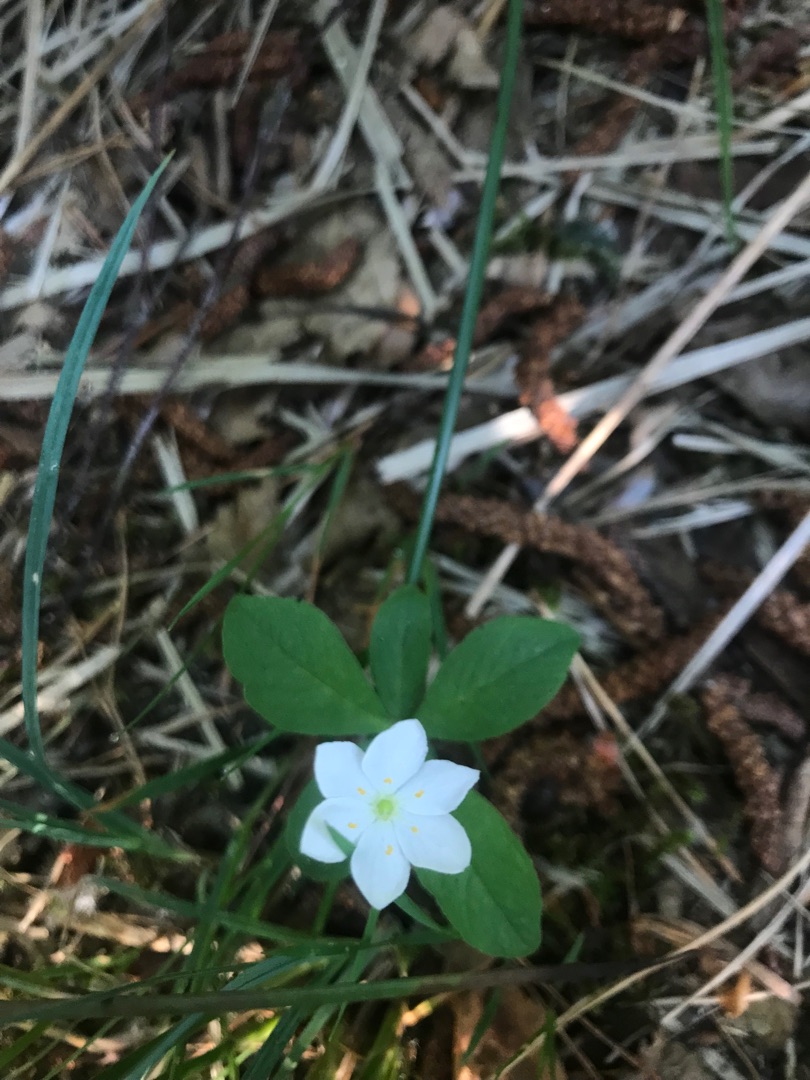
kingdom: Plantae
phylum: Tracheophyta
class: Magnoliopsida
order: Ericales
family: Primulaceae
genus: Lysimachia
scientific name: Lysimachia europaea
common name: Skovstjerne
